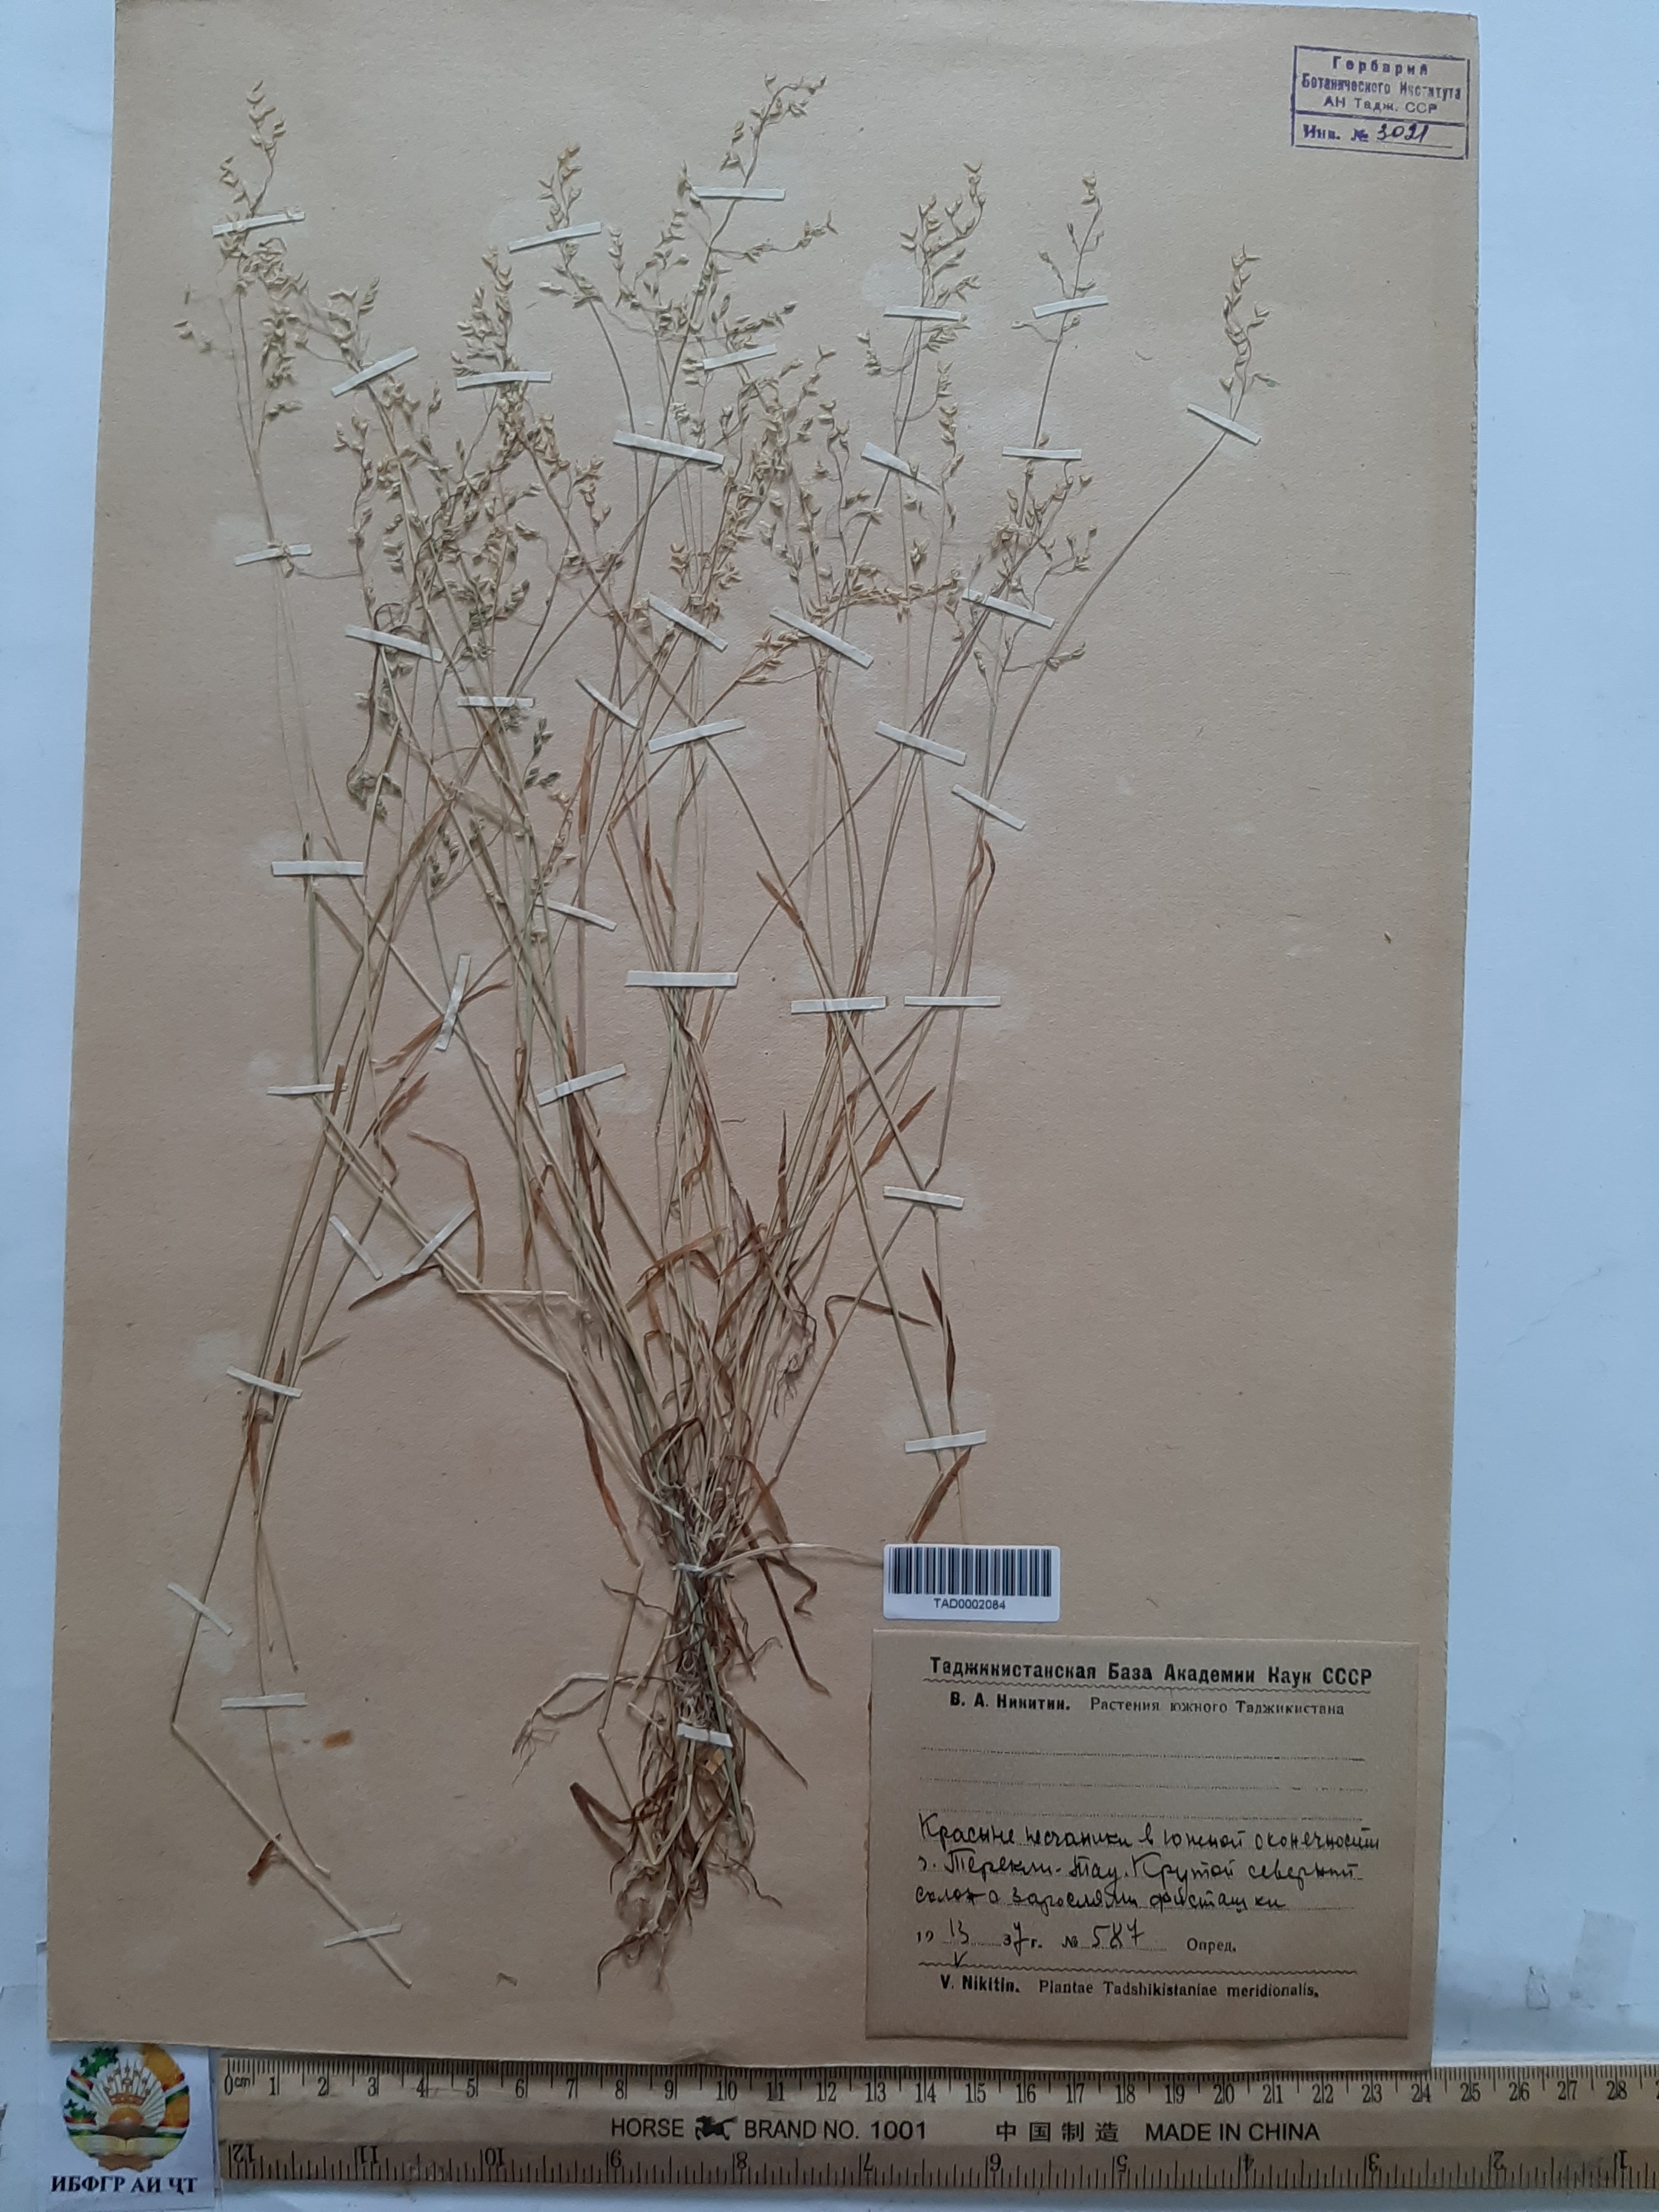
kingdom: Plantae
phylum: Tracheophyta
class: Liliopsida
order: Poales
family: Poaceae
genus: Milium
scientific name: Milium vernale
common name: Early millet
